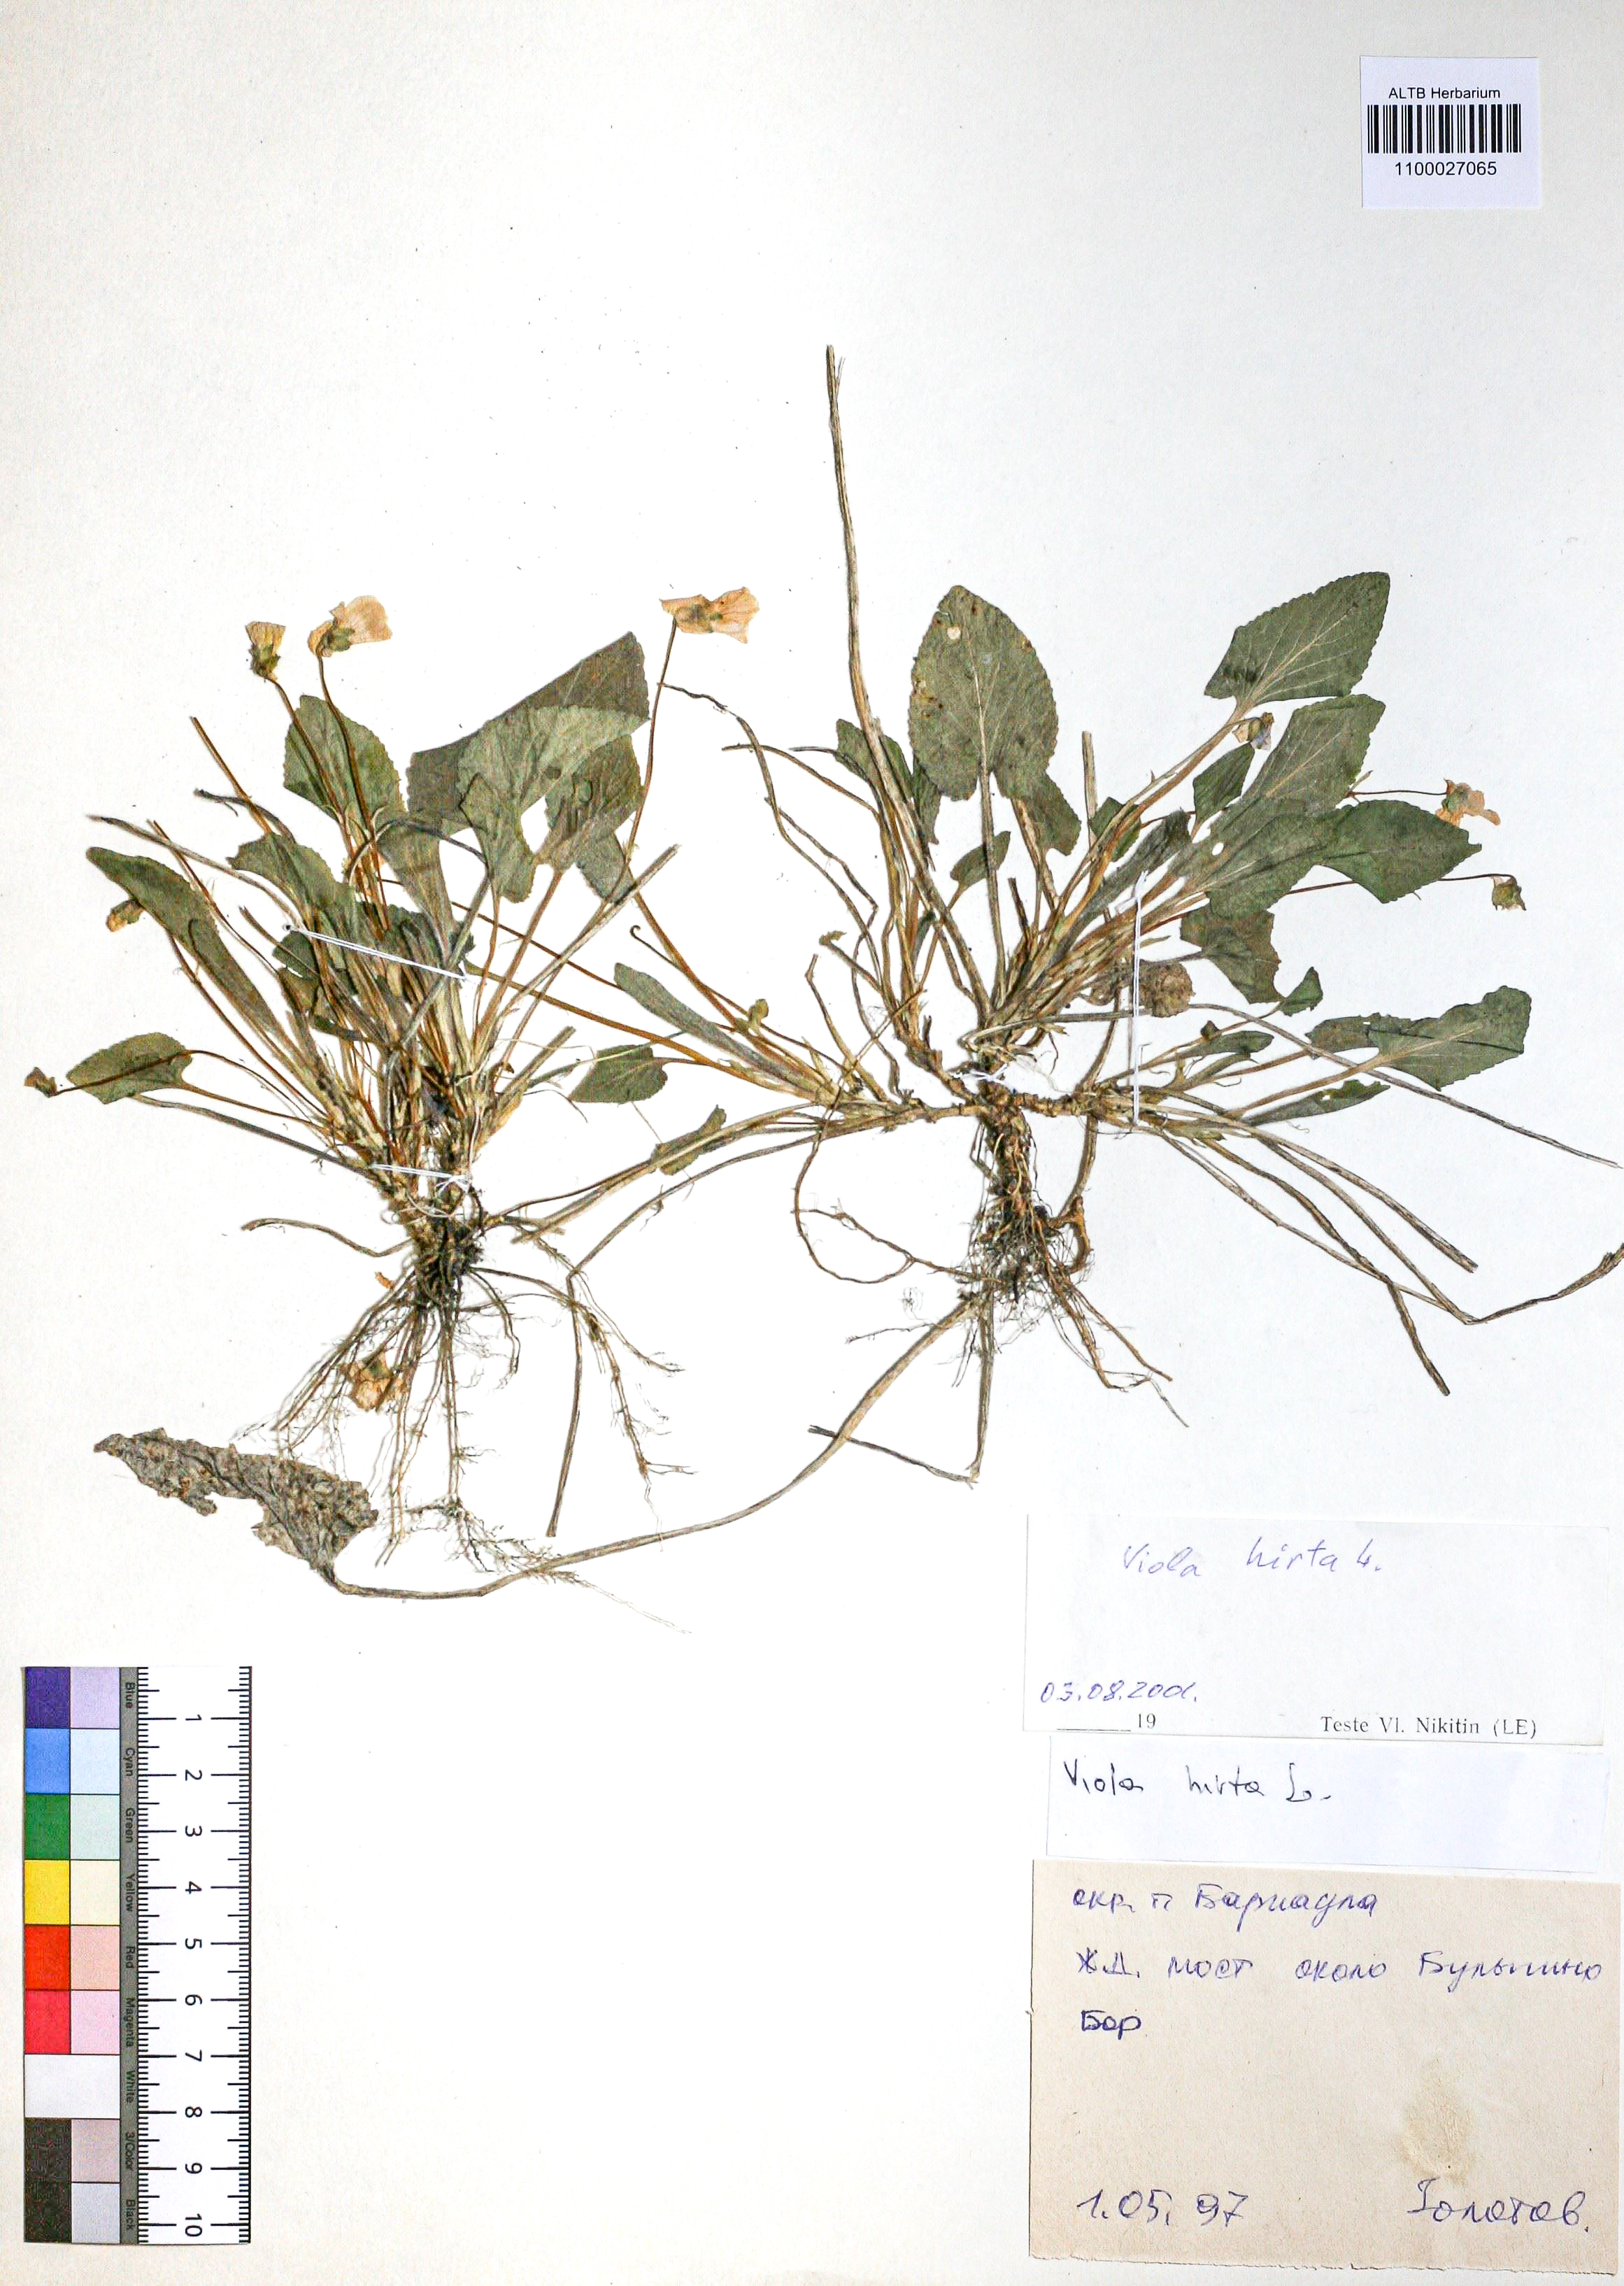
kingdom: Plantae
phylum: Tracheophyta
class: Magnoliopsida
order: Malpighiales
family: Violaceae
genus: Viola
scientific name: Viola hirta
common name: Hairy violet
